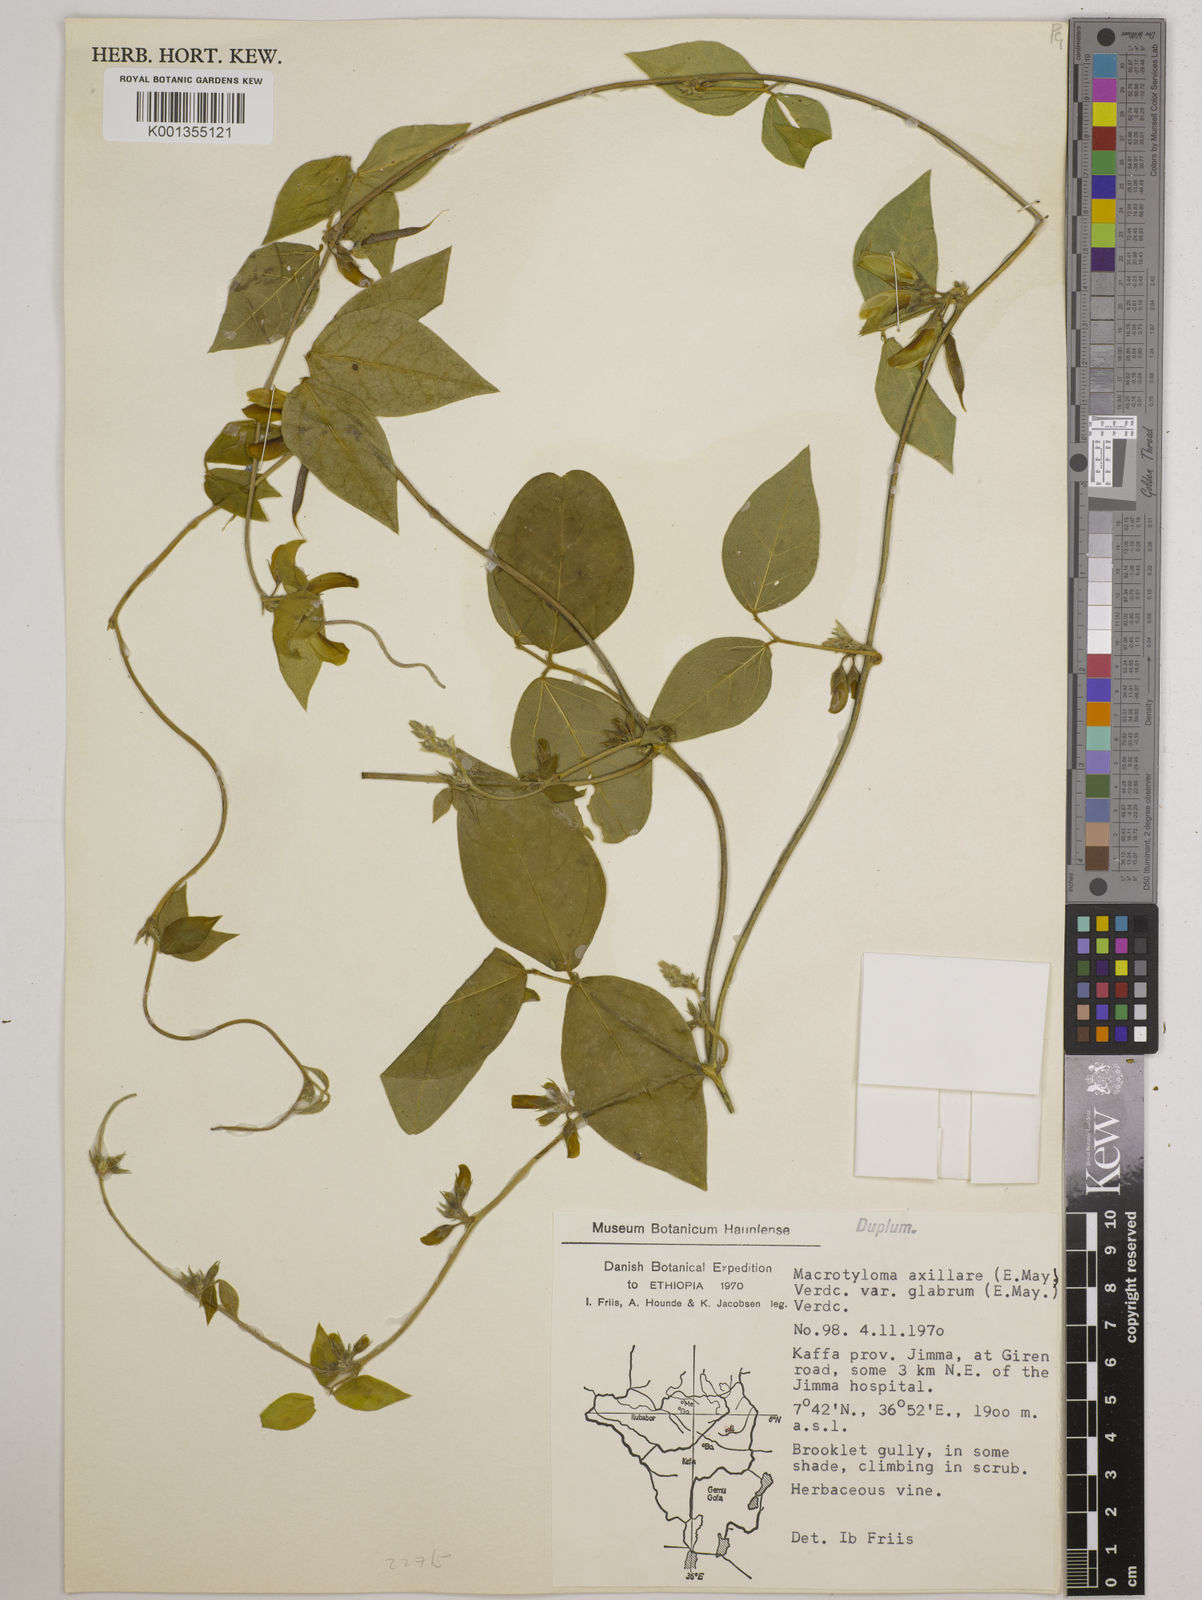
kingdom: Plantae
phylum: Tracheophyta
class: Magnoliopsida
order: Fabales
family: Fabaceae
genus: Macrotyloma
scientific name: Macrotyloma
